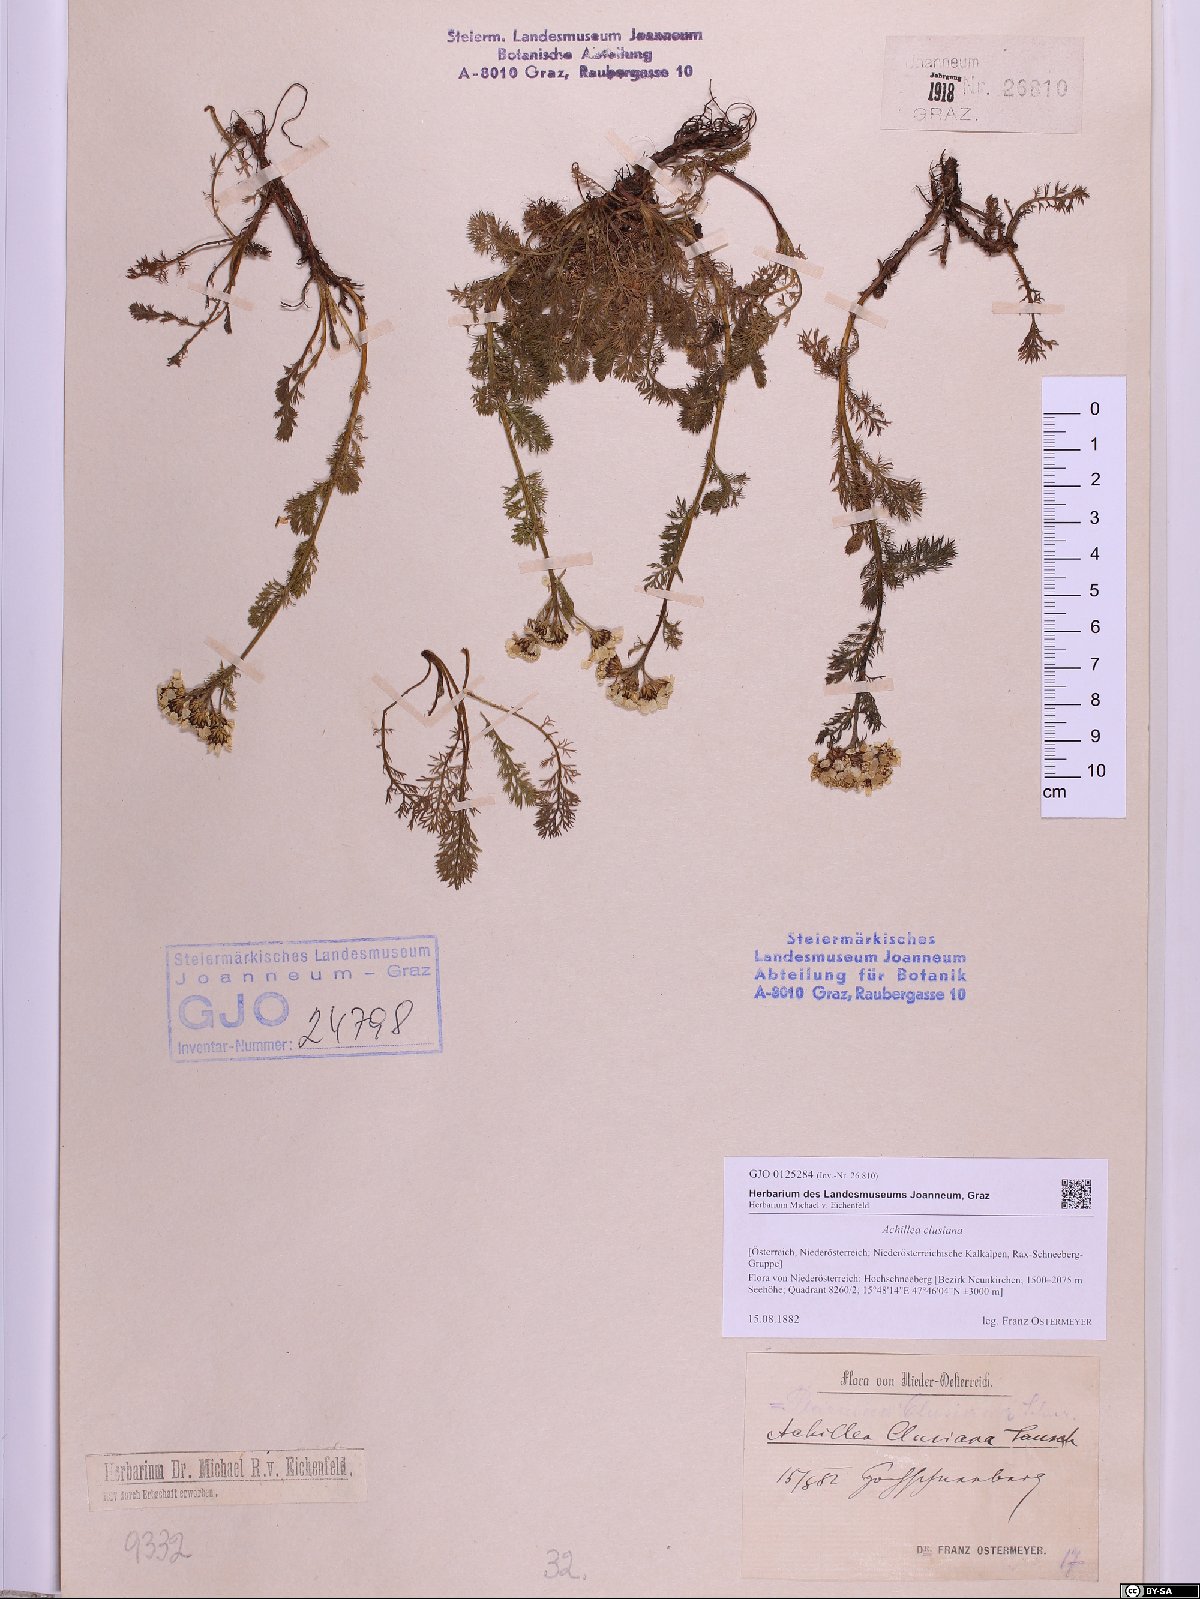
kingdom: Plantae
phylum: Tracheophyta
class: Magnoliopsida
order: Asterales
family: Asteraceae
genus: Achillea
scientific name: Achillea clusiana
